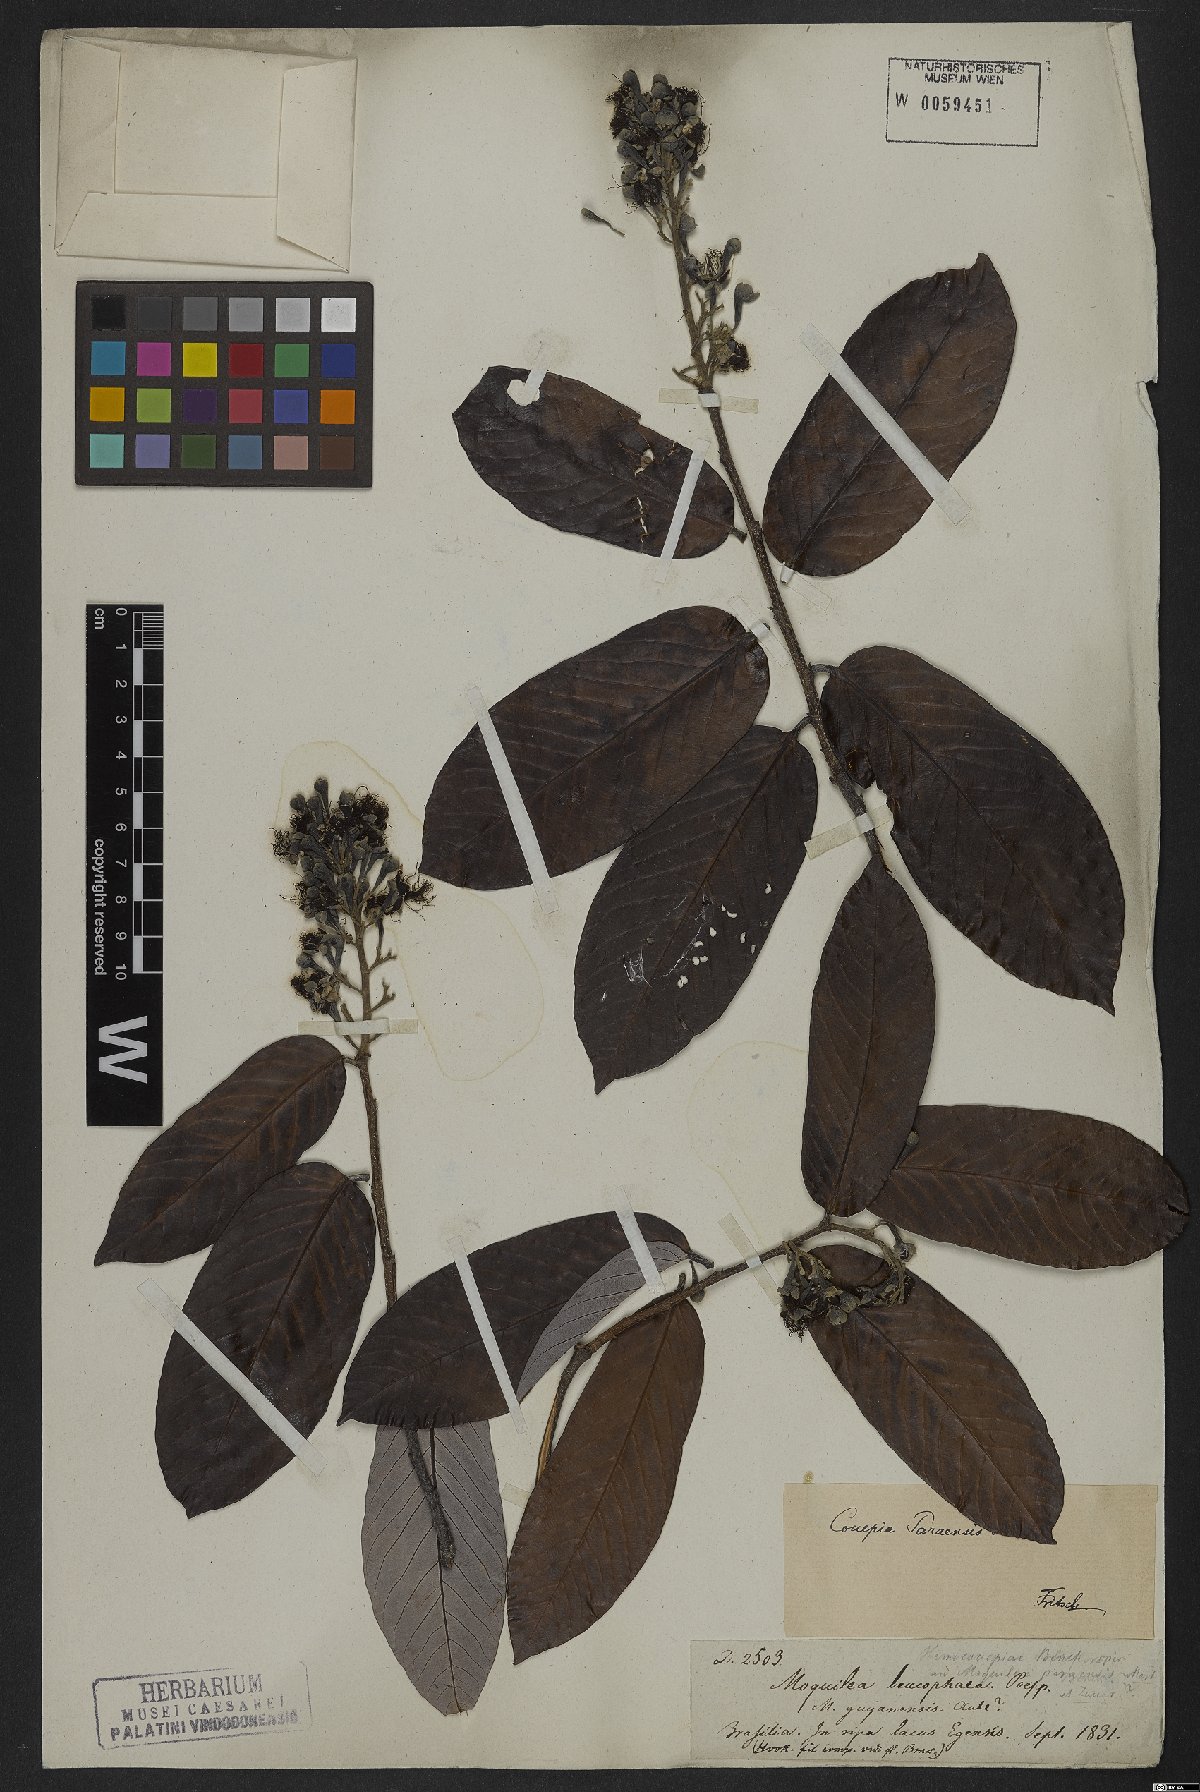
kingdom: Plantae
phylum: Tracheophyta
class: Magnoliopsida
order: Malpighiales
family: Chrysobalanaceae
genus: Couepia
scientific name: Couepia paraensis
